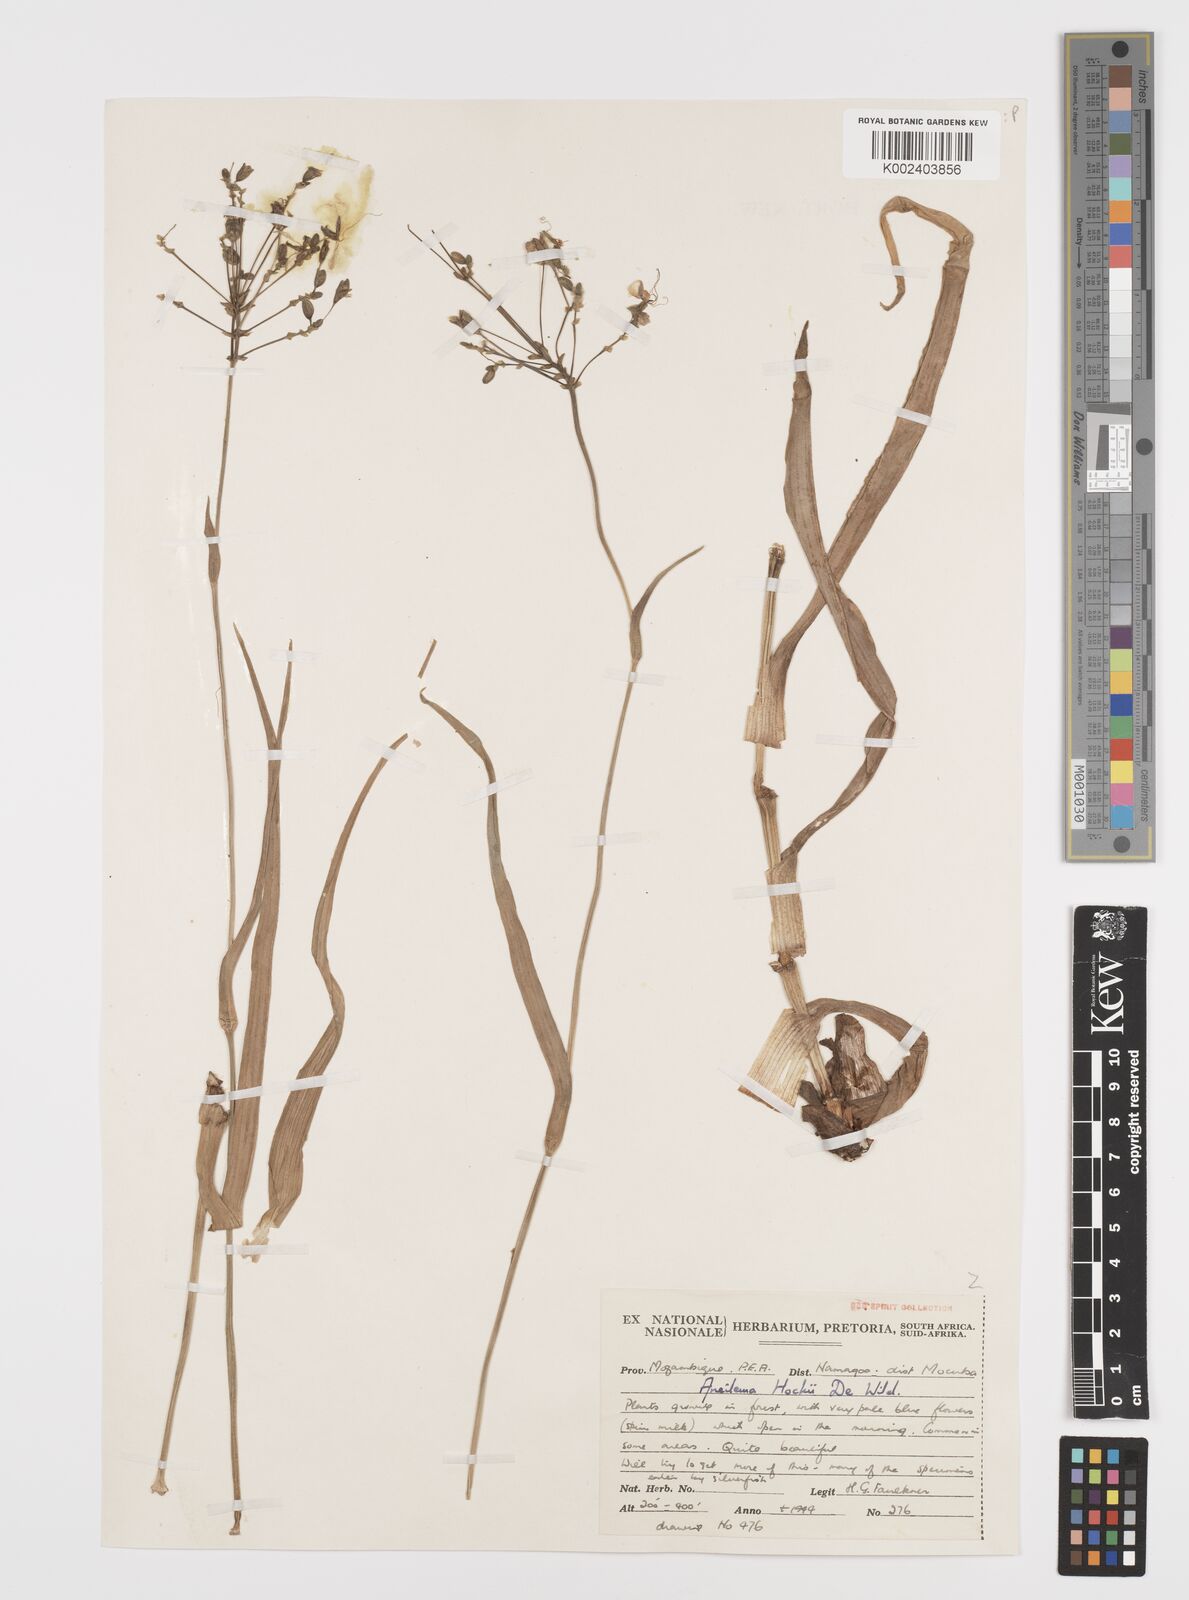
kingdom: Plantae
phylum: Tracheophyta
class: Liliopsida
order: Commelinales
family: Commelinaceae
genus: Aneilema
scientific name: Aneilema hockii
